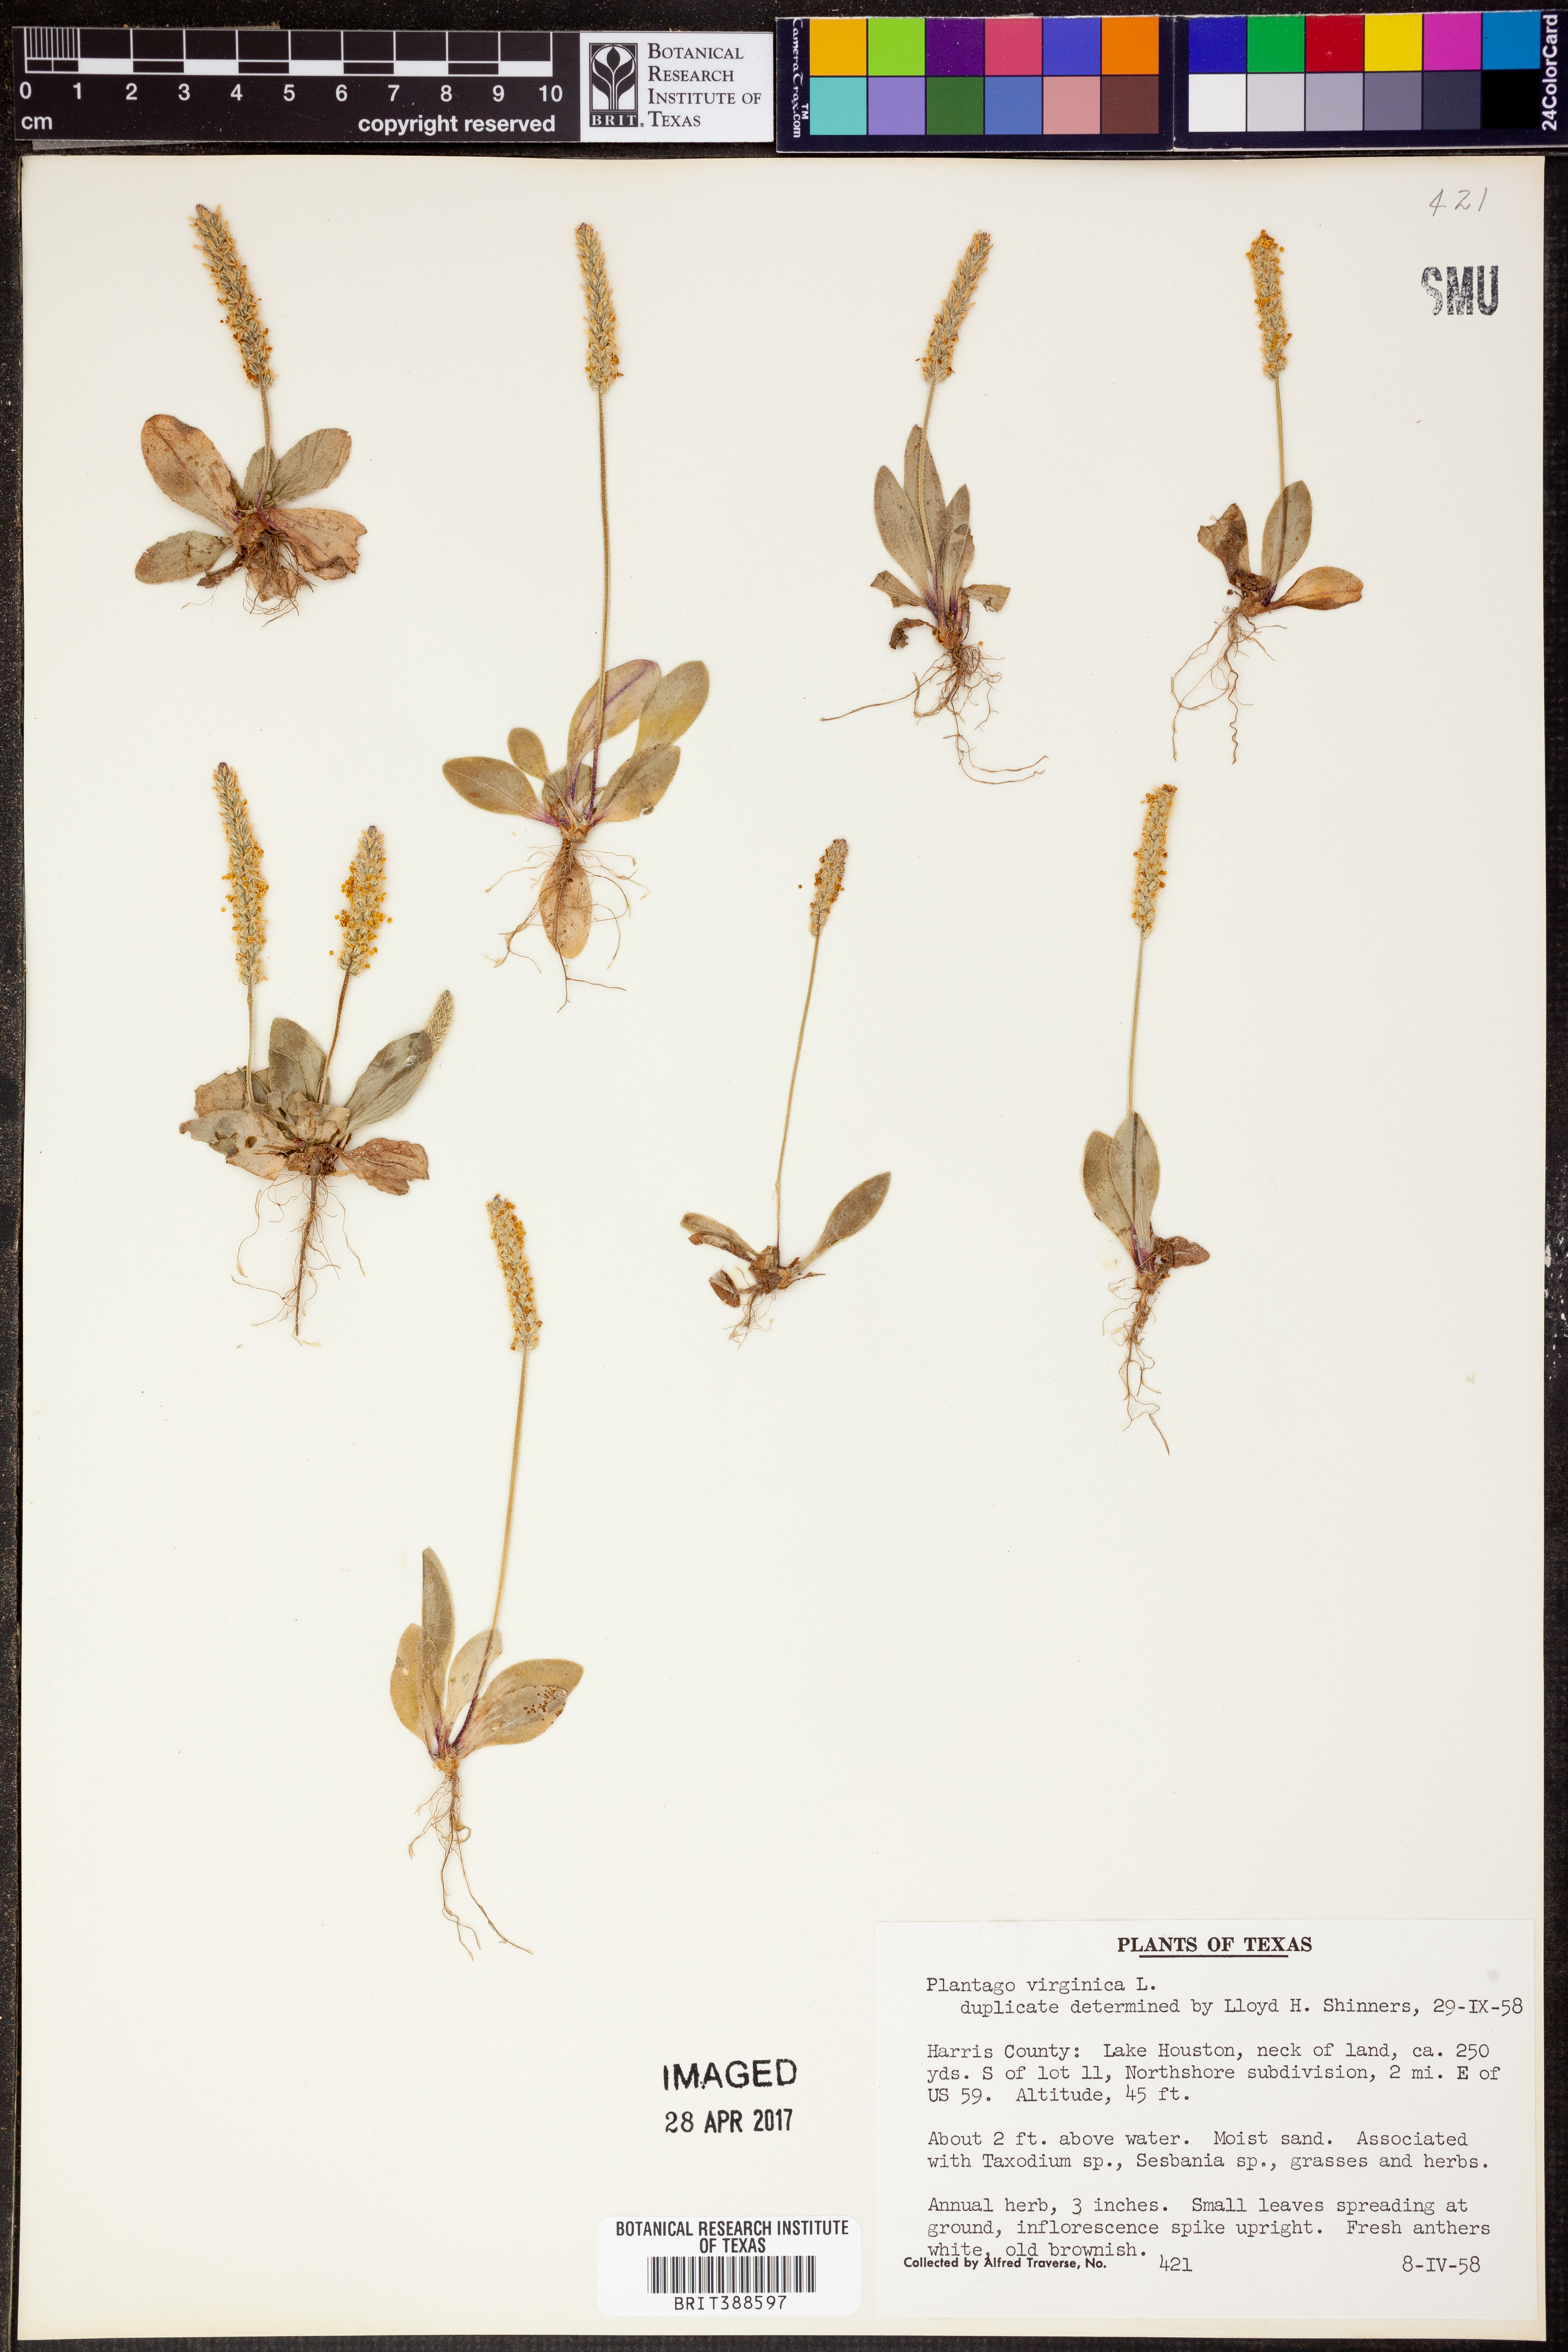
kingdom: Plantae
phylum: Tracheophyta
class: Magnoliopsida
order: Lamiales
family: Plantaginaceae
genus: Plantago
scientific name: Plantago virginica
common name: Hoary plantain
